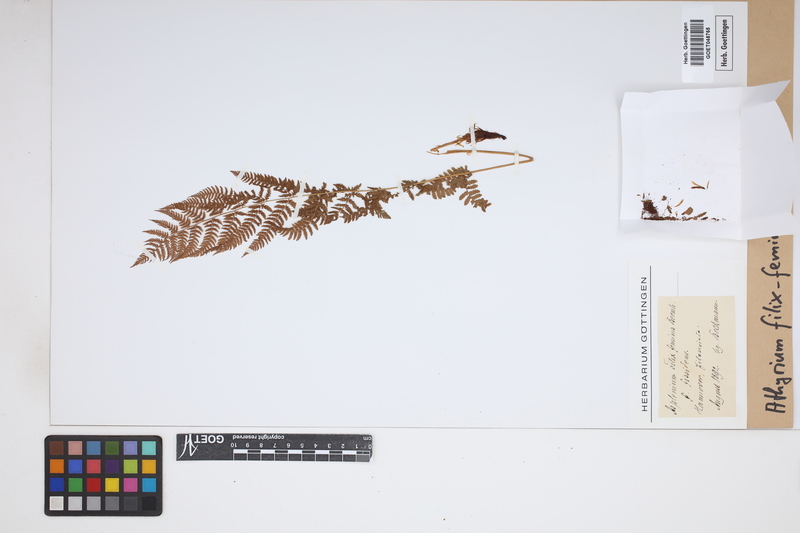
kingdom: Plantae
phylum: Tracheophyta
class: Polypodiopsida
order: Polypodiales
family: Athyriaceae
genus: Athyrium
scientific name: Athyrium filix-femina
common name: Lady fern
